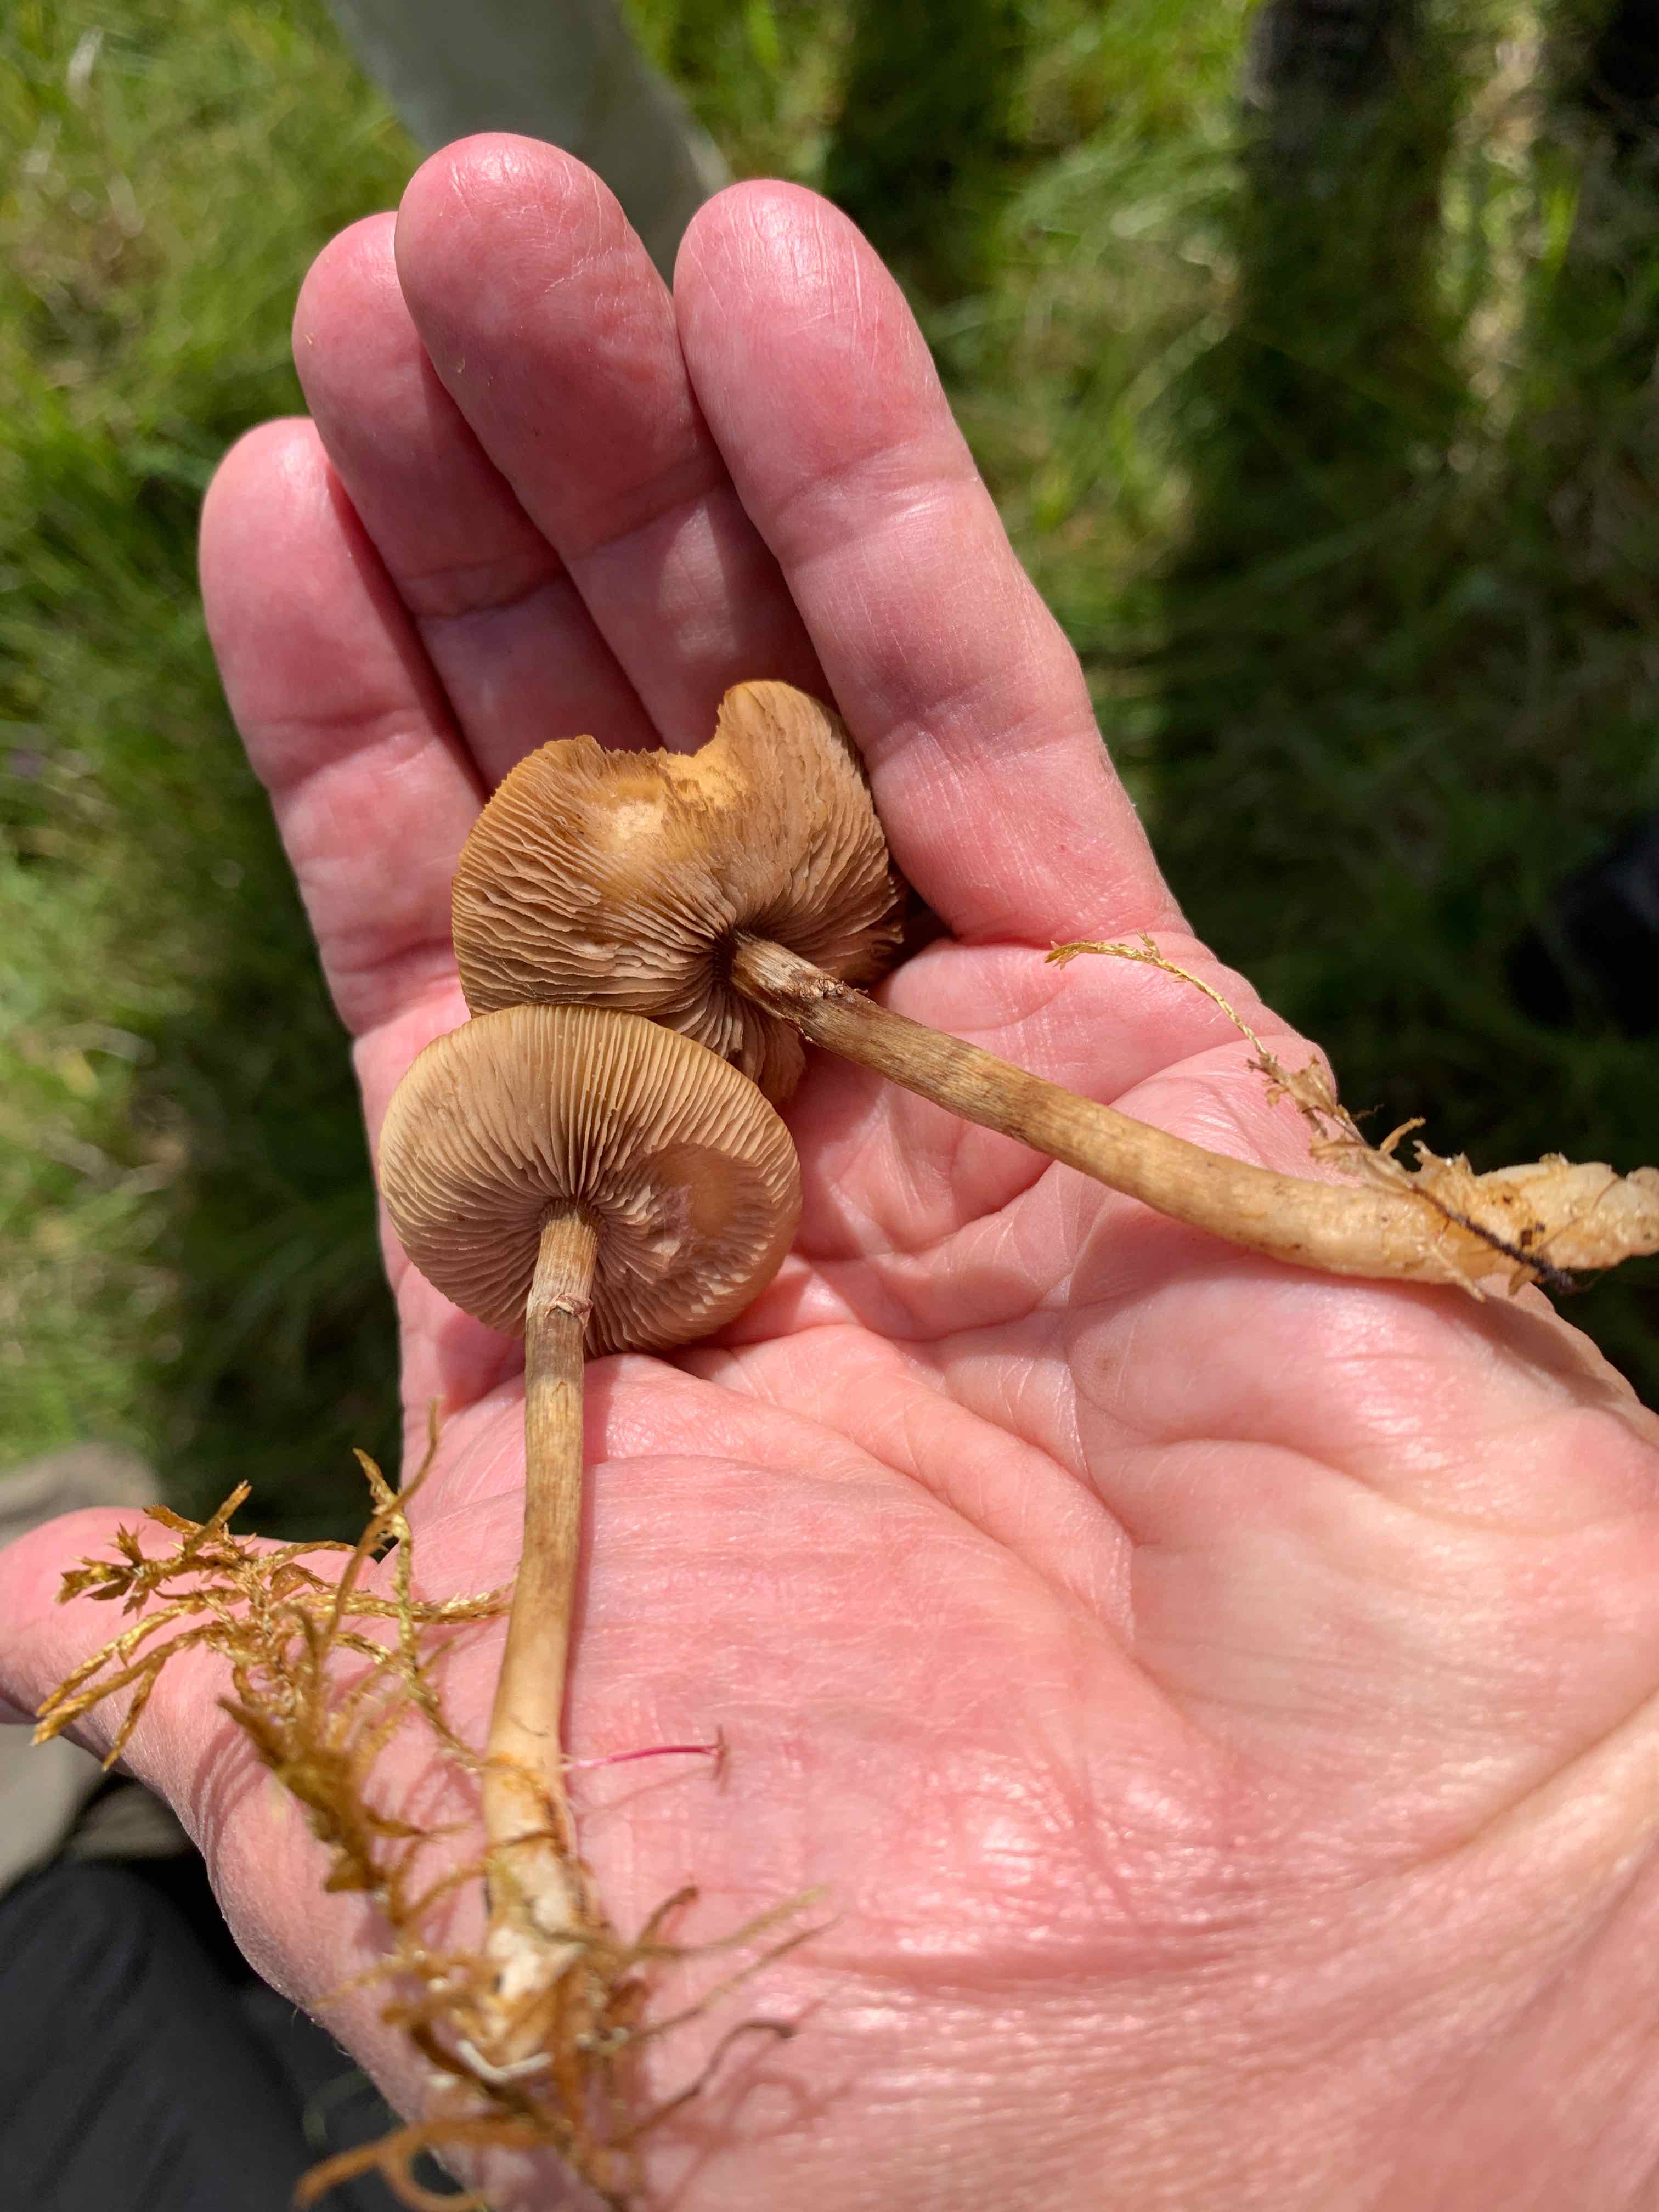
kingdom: Fungi
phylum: Basidiomycota
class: Agaricomycetes
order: Agaricales
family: Strophariaceae
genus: Agrocybe
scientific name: Agrocybe elatella
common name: mose-agerhat
